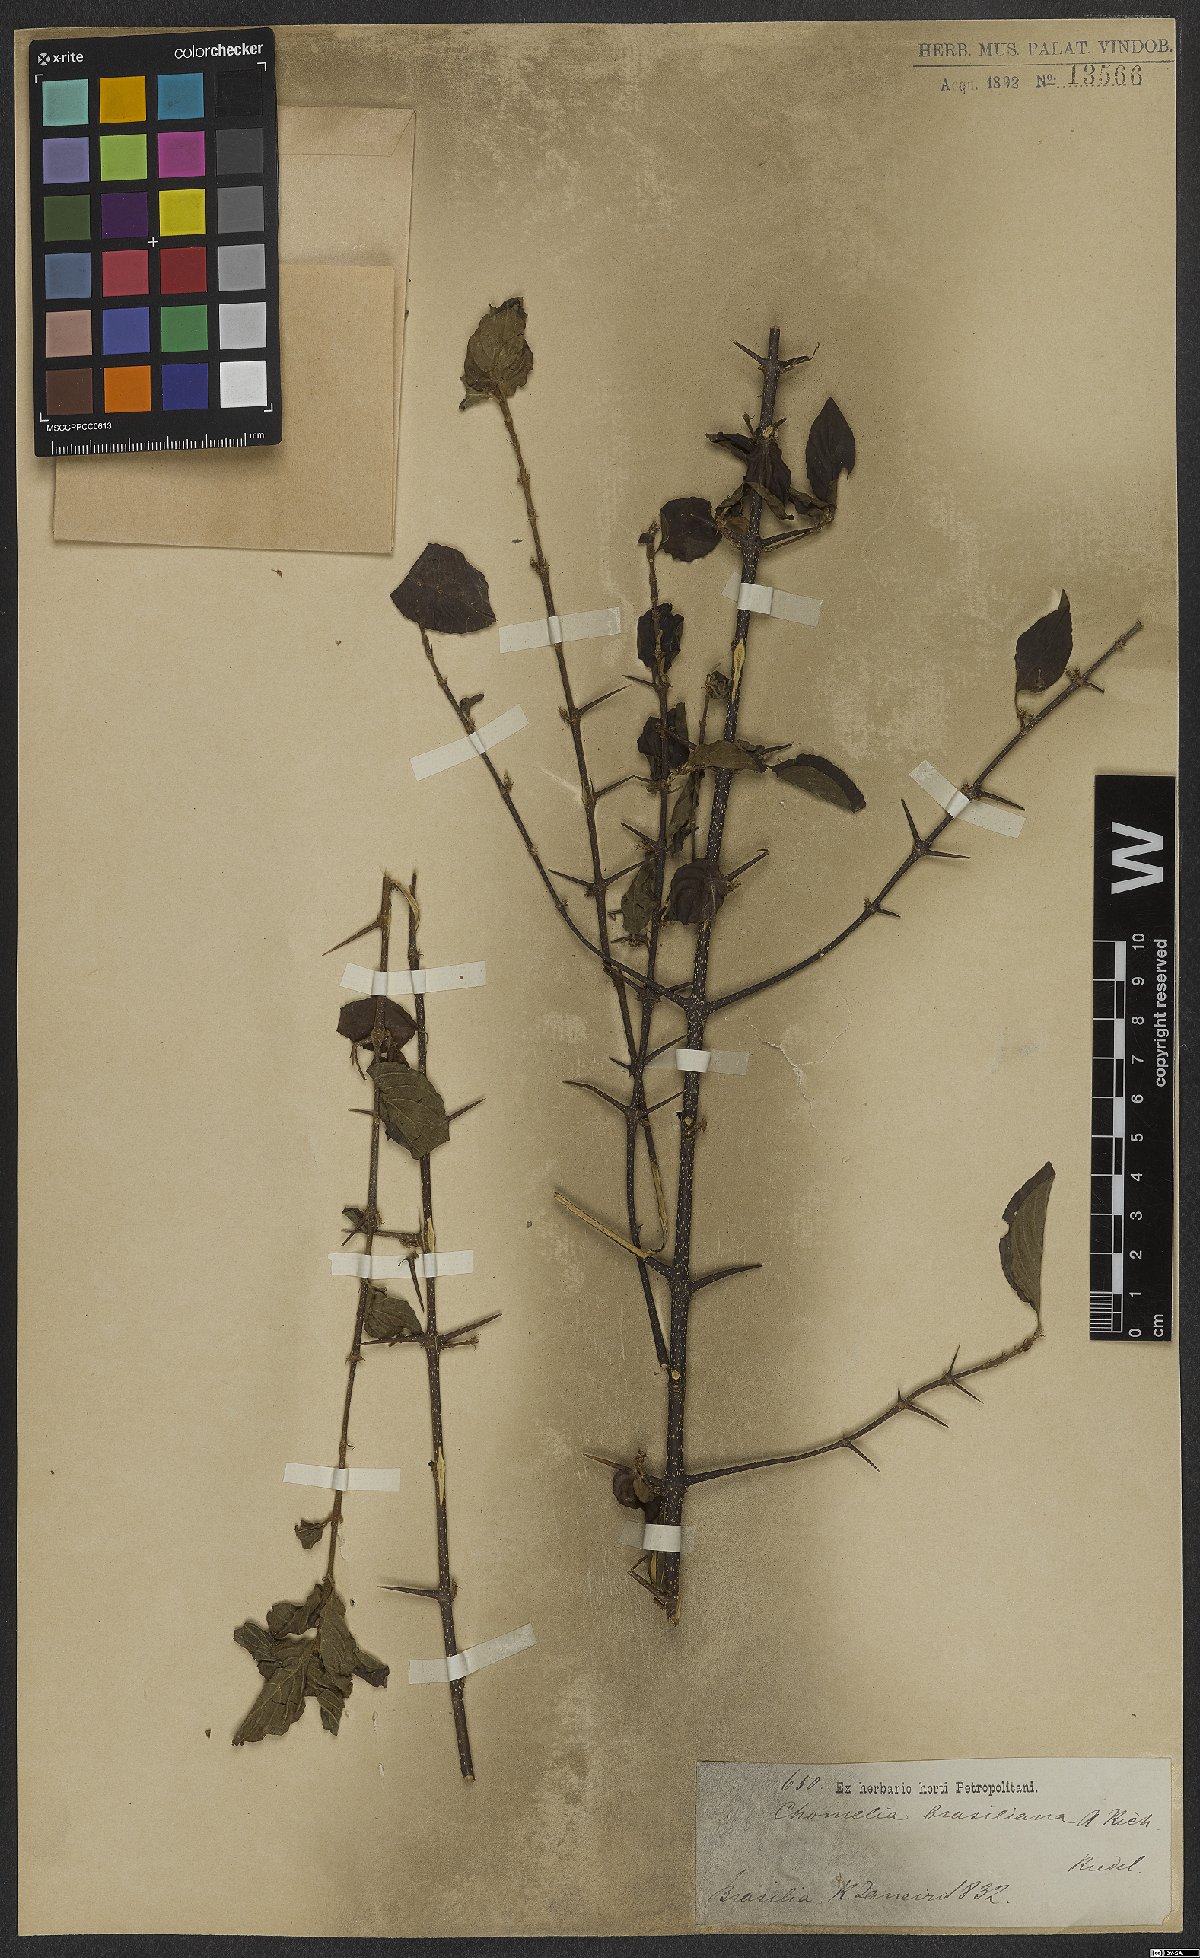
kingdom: Plantae
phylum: Tracheophyta
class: Magnoliopsida
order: Gentianales
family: Rubiaceae
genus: Chomelia
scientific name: Chomelia brasiliana
